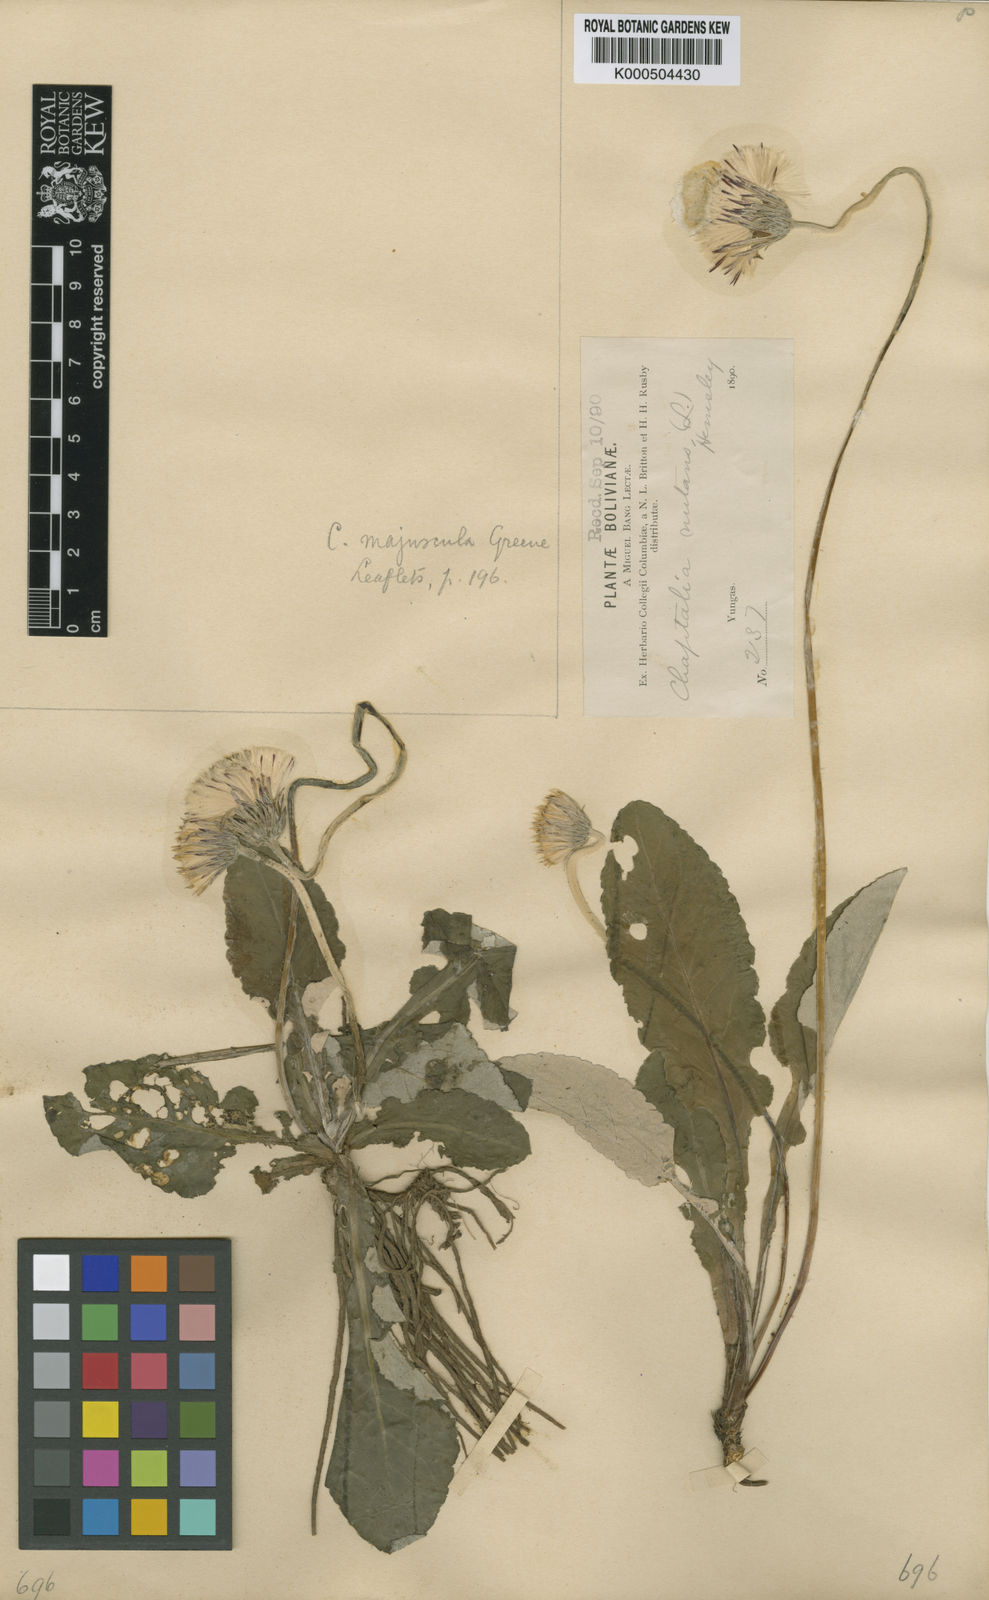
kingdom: Plantae
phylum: Tracheophyta
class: Magnoliopsida
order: Asterales
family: Asteraceae
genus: Chaptalia
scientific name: Chaptalia nutans
